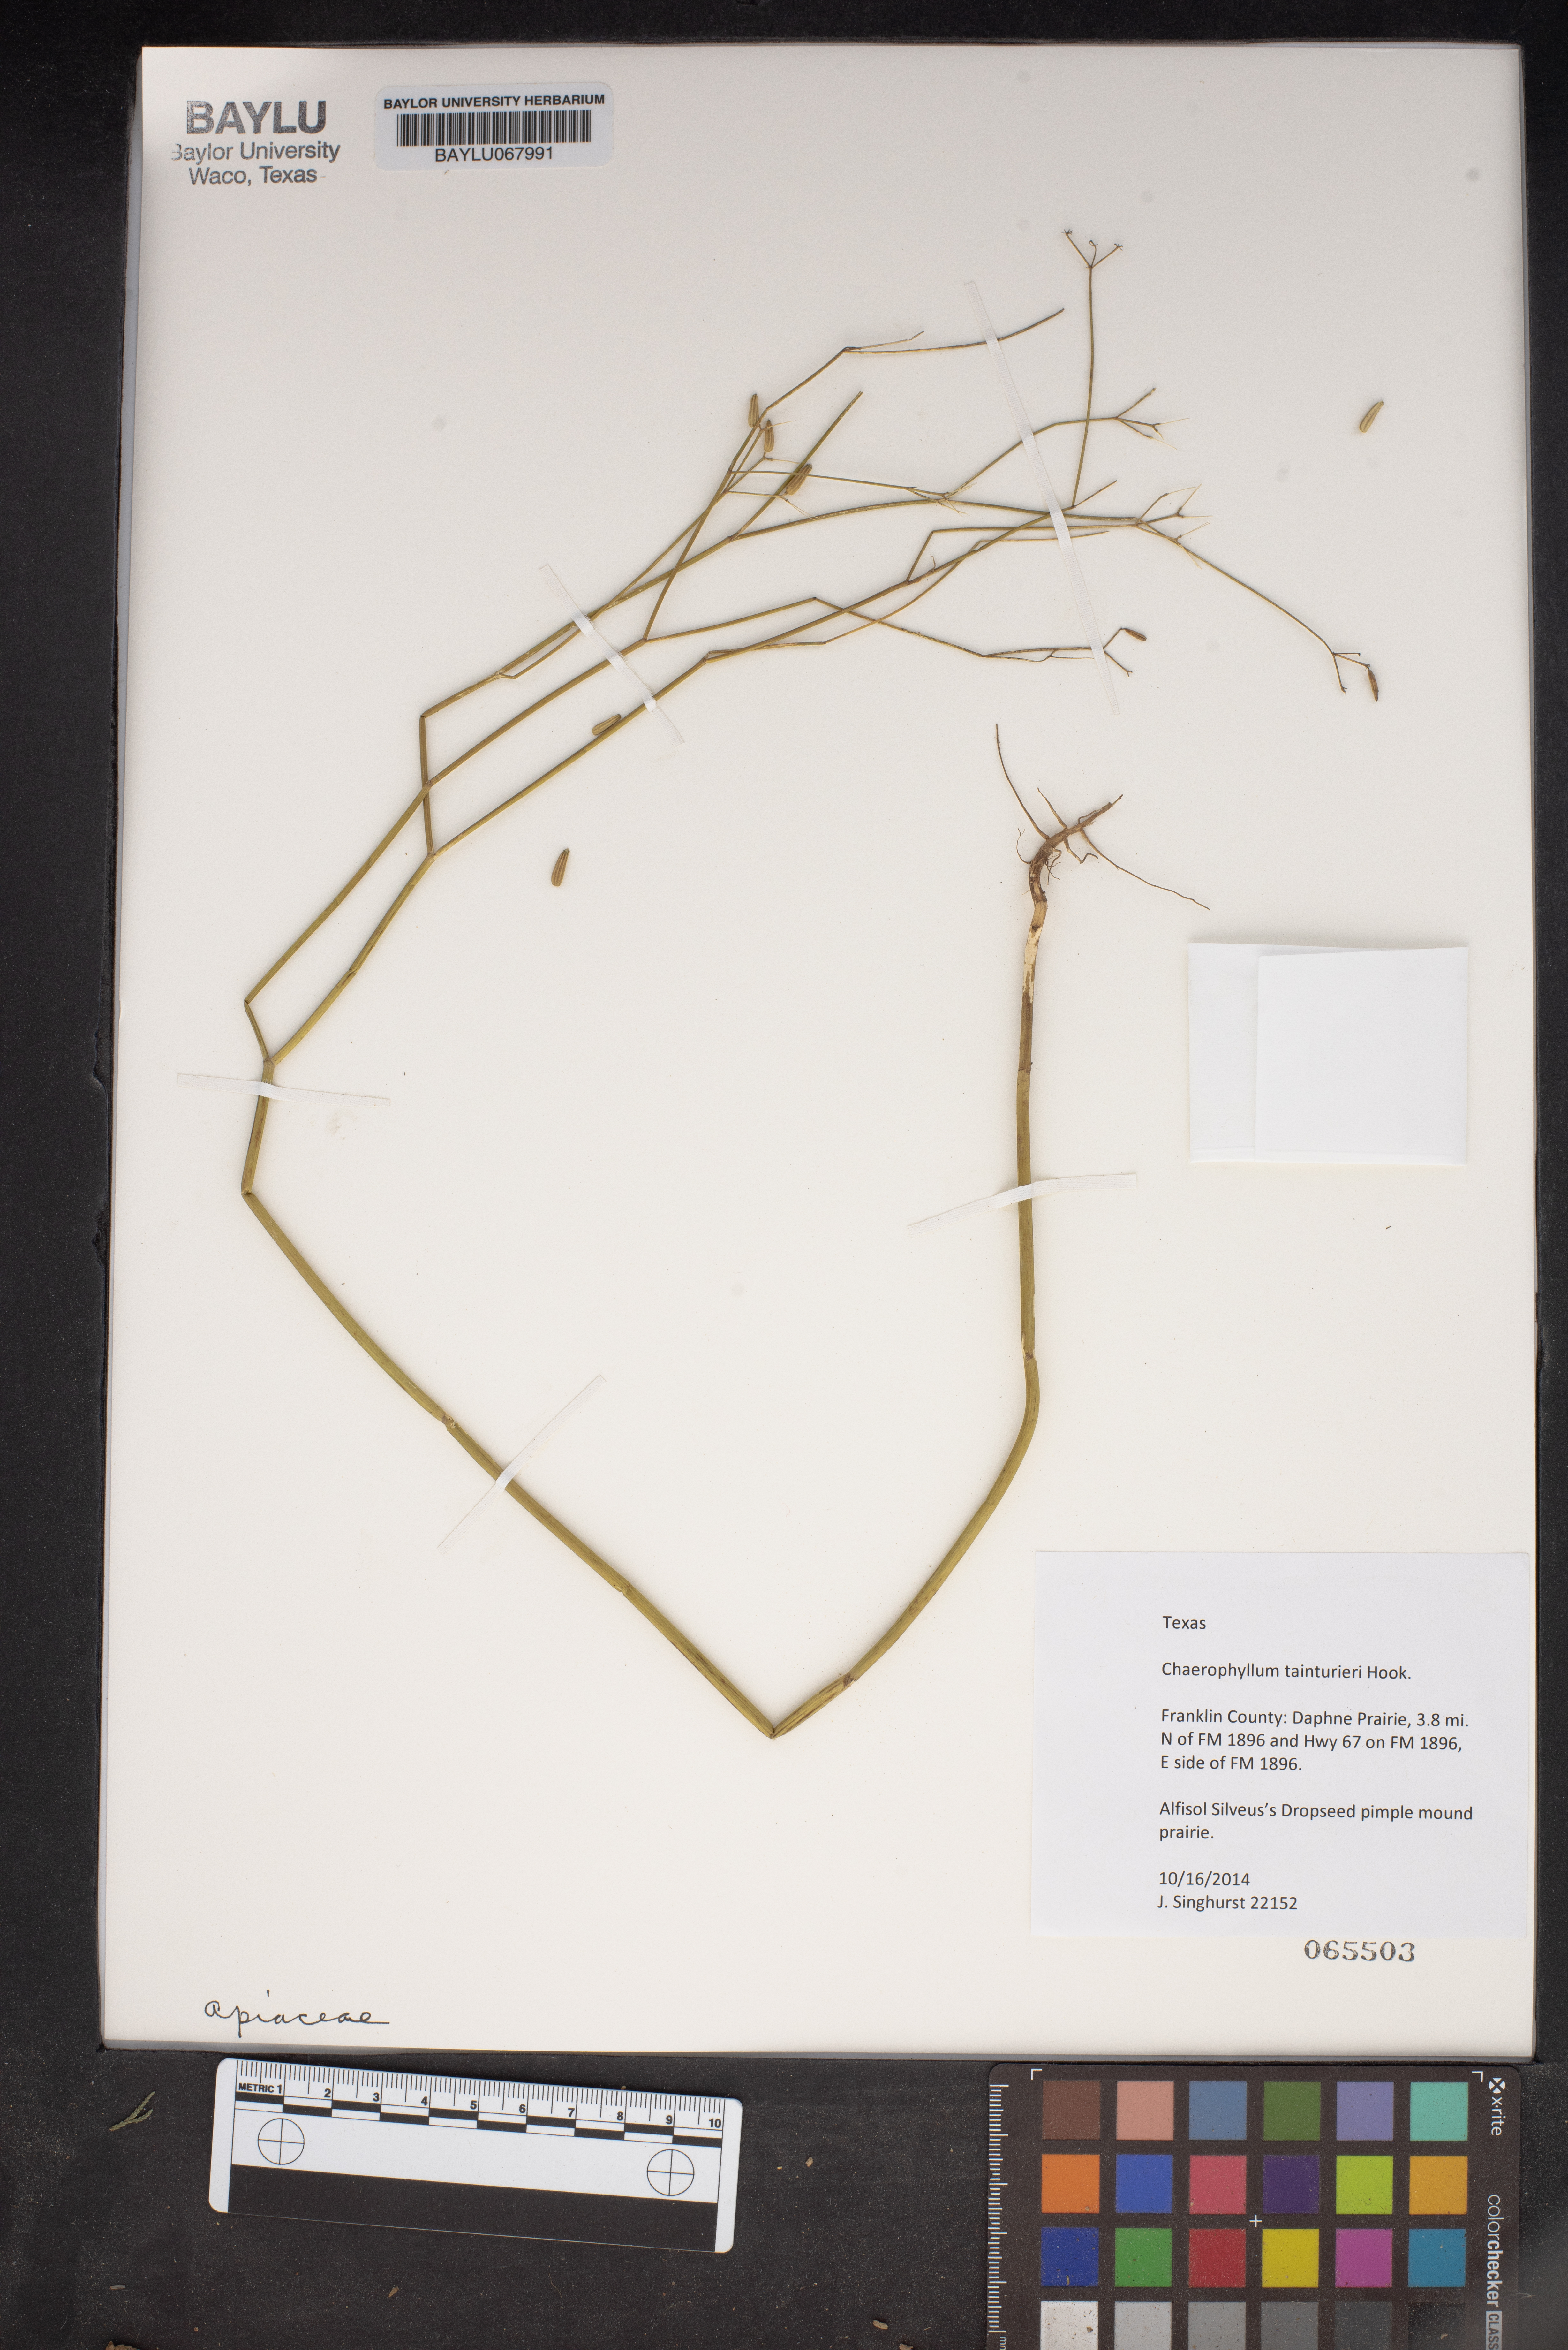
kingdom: Plantae
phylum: Tracheophyta
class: Magnoliopsida
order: Apiales
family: Apiaceae
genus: Chaerophyllum
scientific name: Chaerophyllum tainturieri
